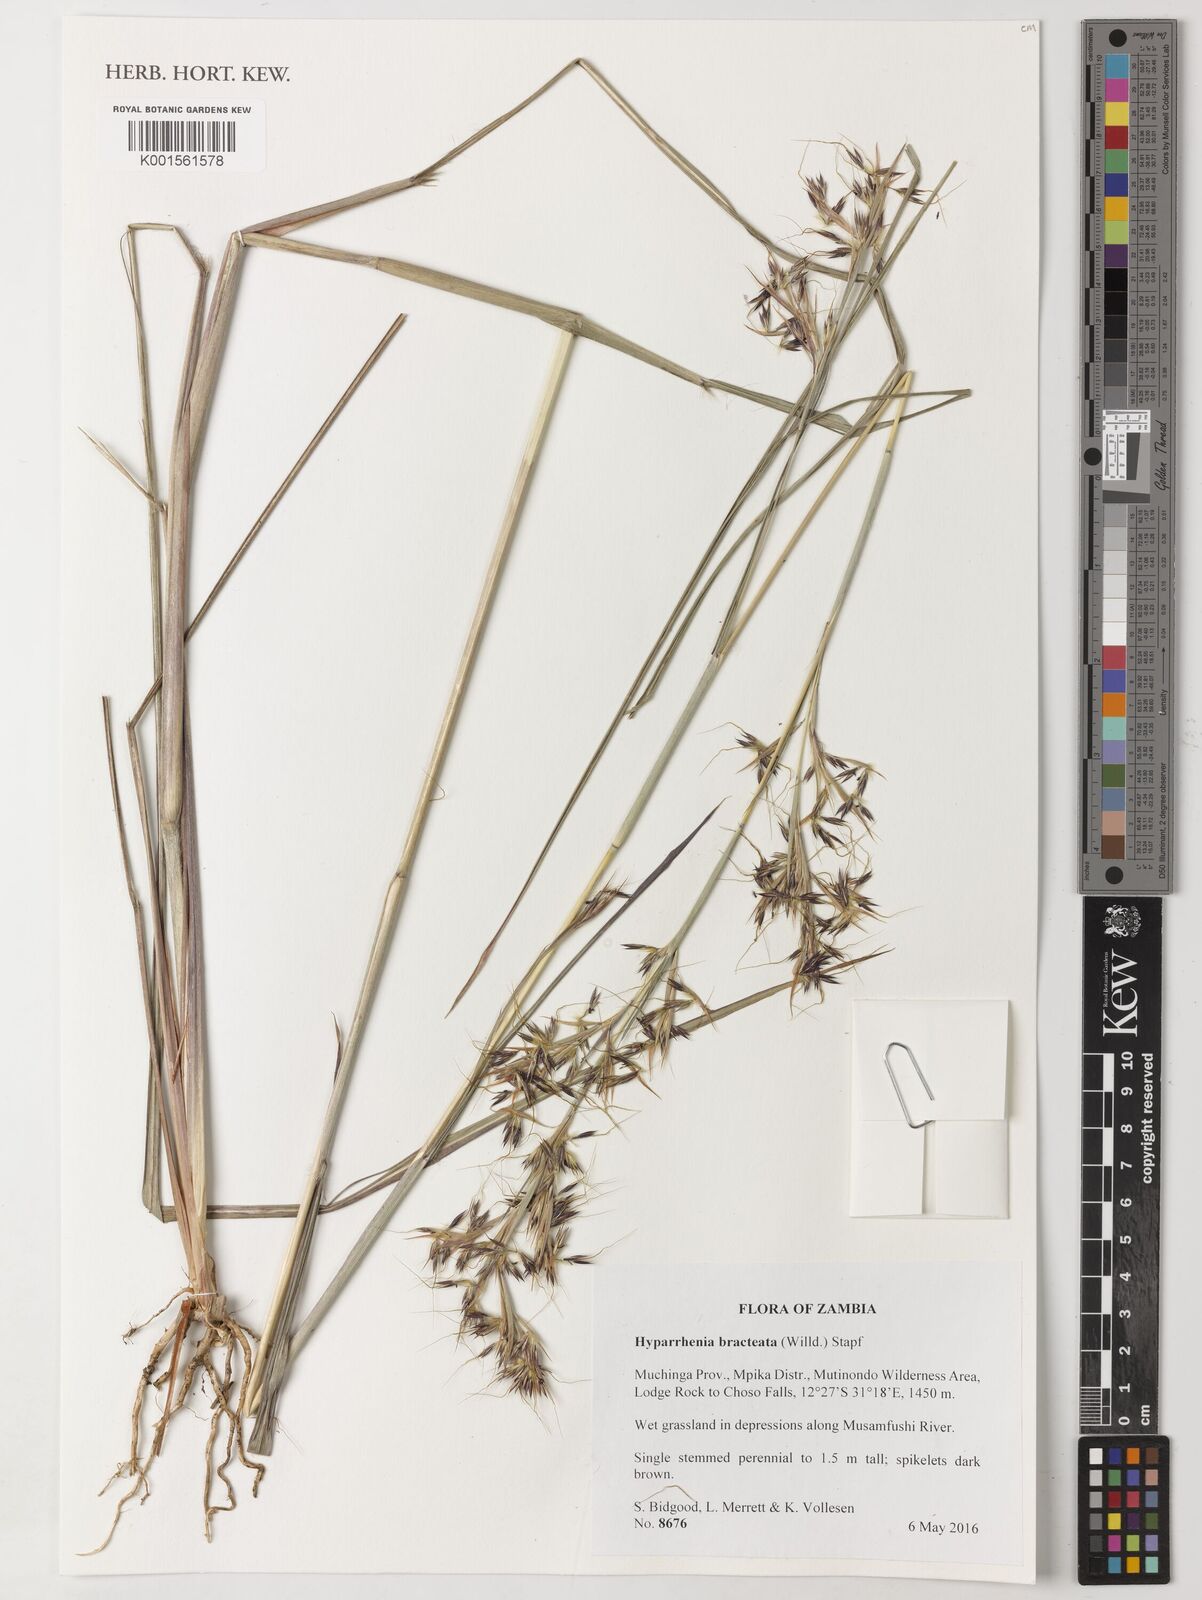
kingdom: Plantae
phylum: Tracheophyta
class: Liliopsida
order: Poales
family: Poaceae
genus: Hyparrhenia
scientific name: Hyparrhenia bracteata
